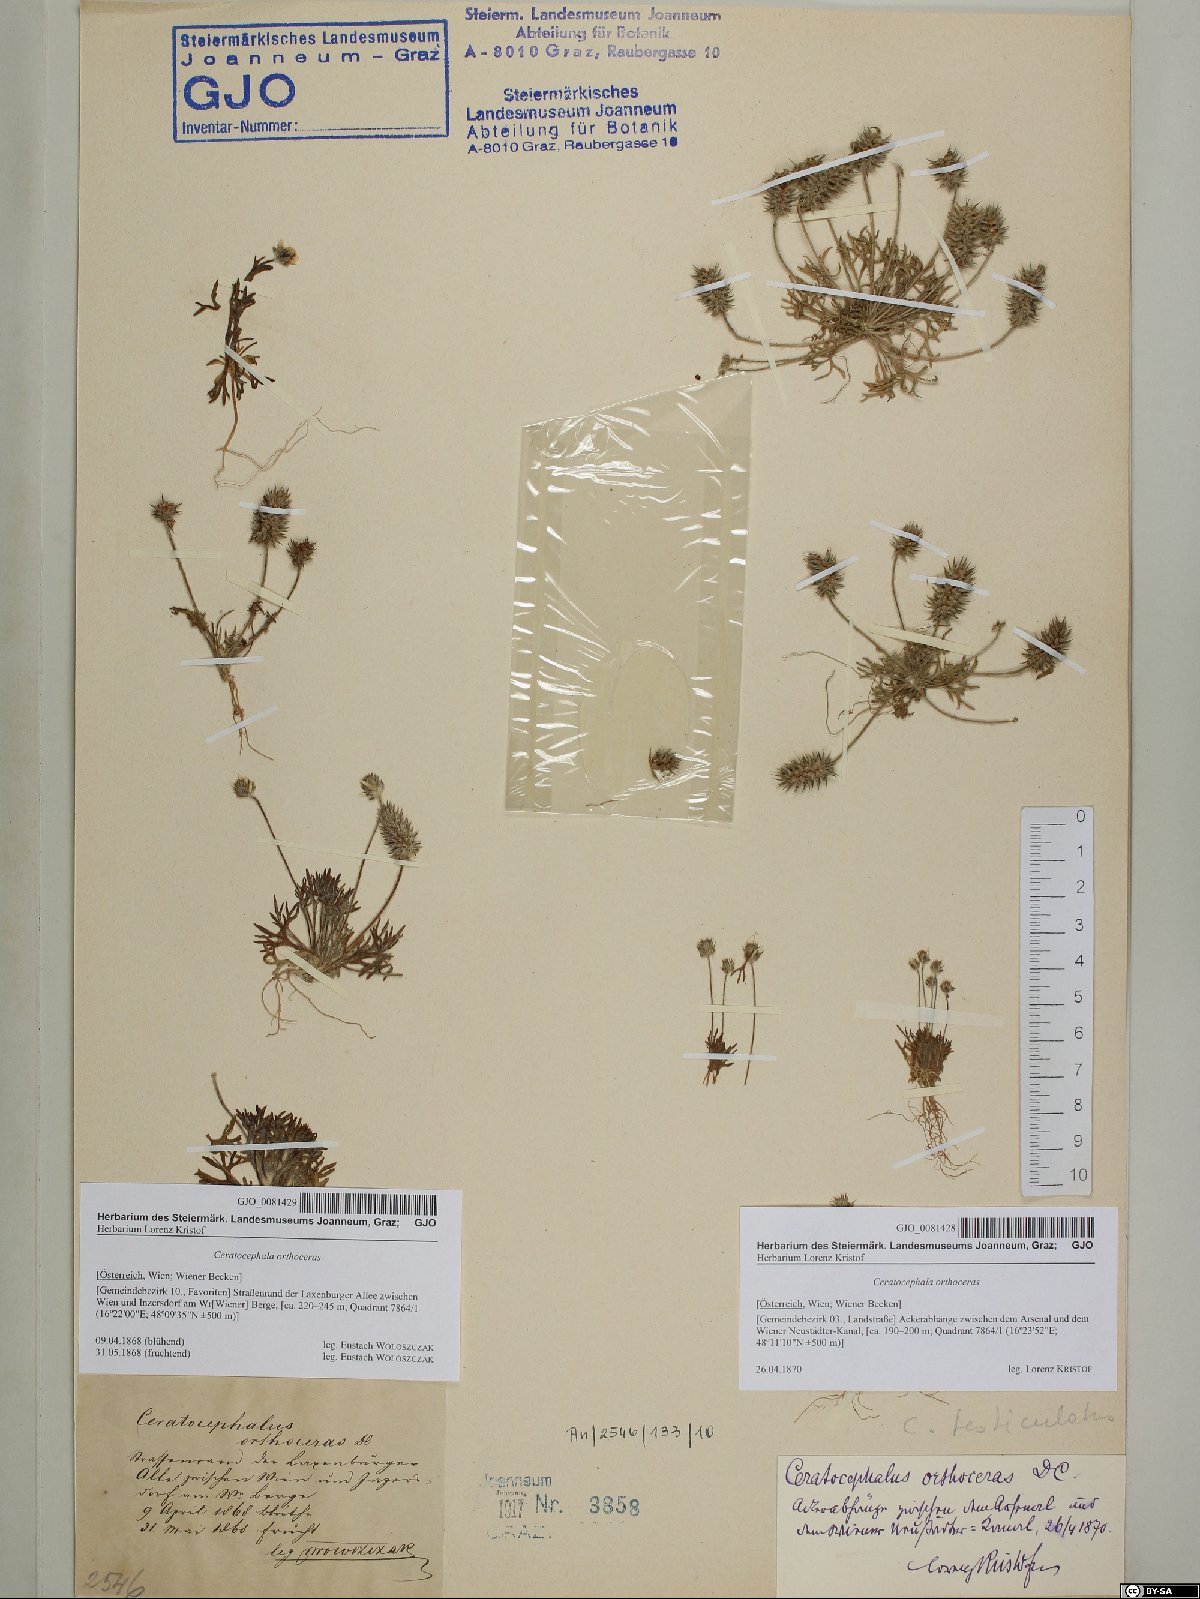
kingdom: Plantae
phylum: Tracheophyta
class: Magnoliopsida
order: Ranunculales
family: Ranunculaceae
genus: Ceratocephala
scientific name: Ceratocephala orthoceras
